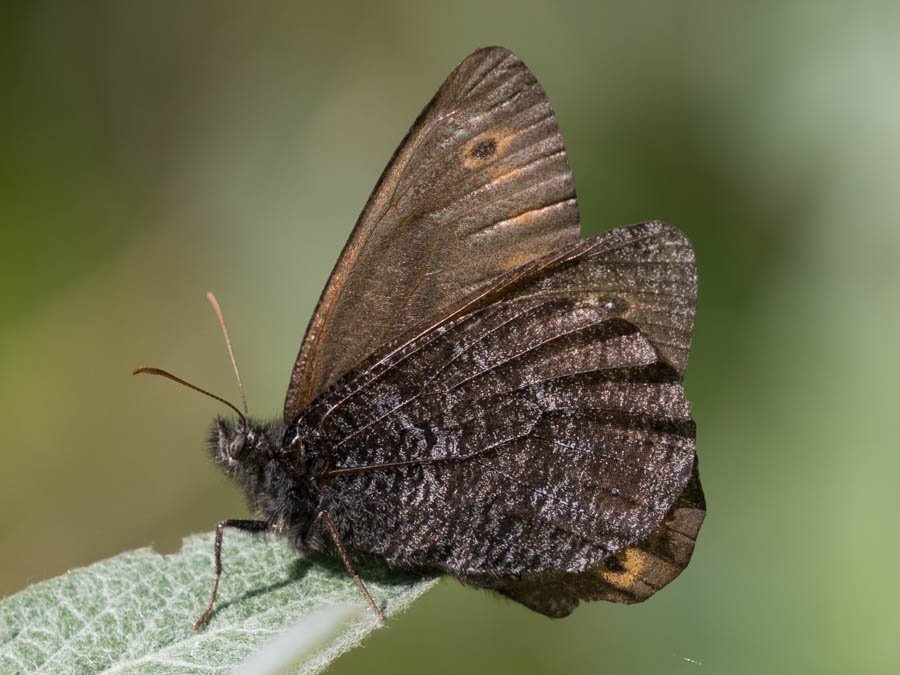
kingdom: Animalia
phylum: Arthropoda
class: Insecta
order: Lepidoptera
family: Nymphalidae
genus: Oeneis
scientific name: Oeneis jutta
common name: Jutta Arctic
